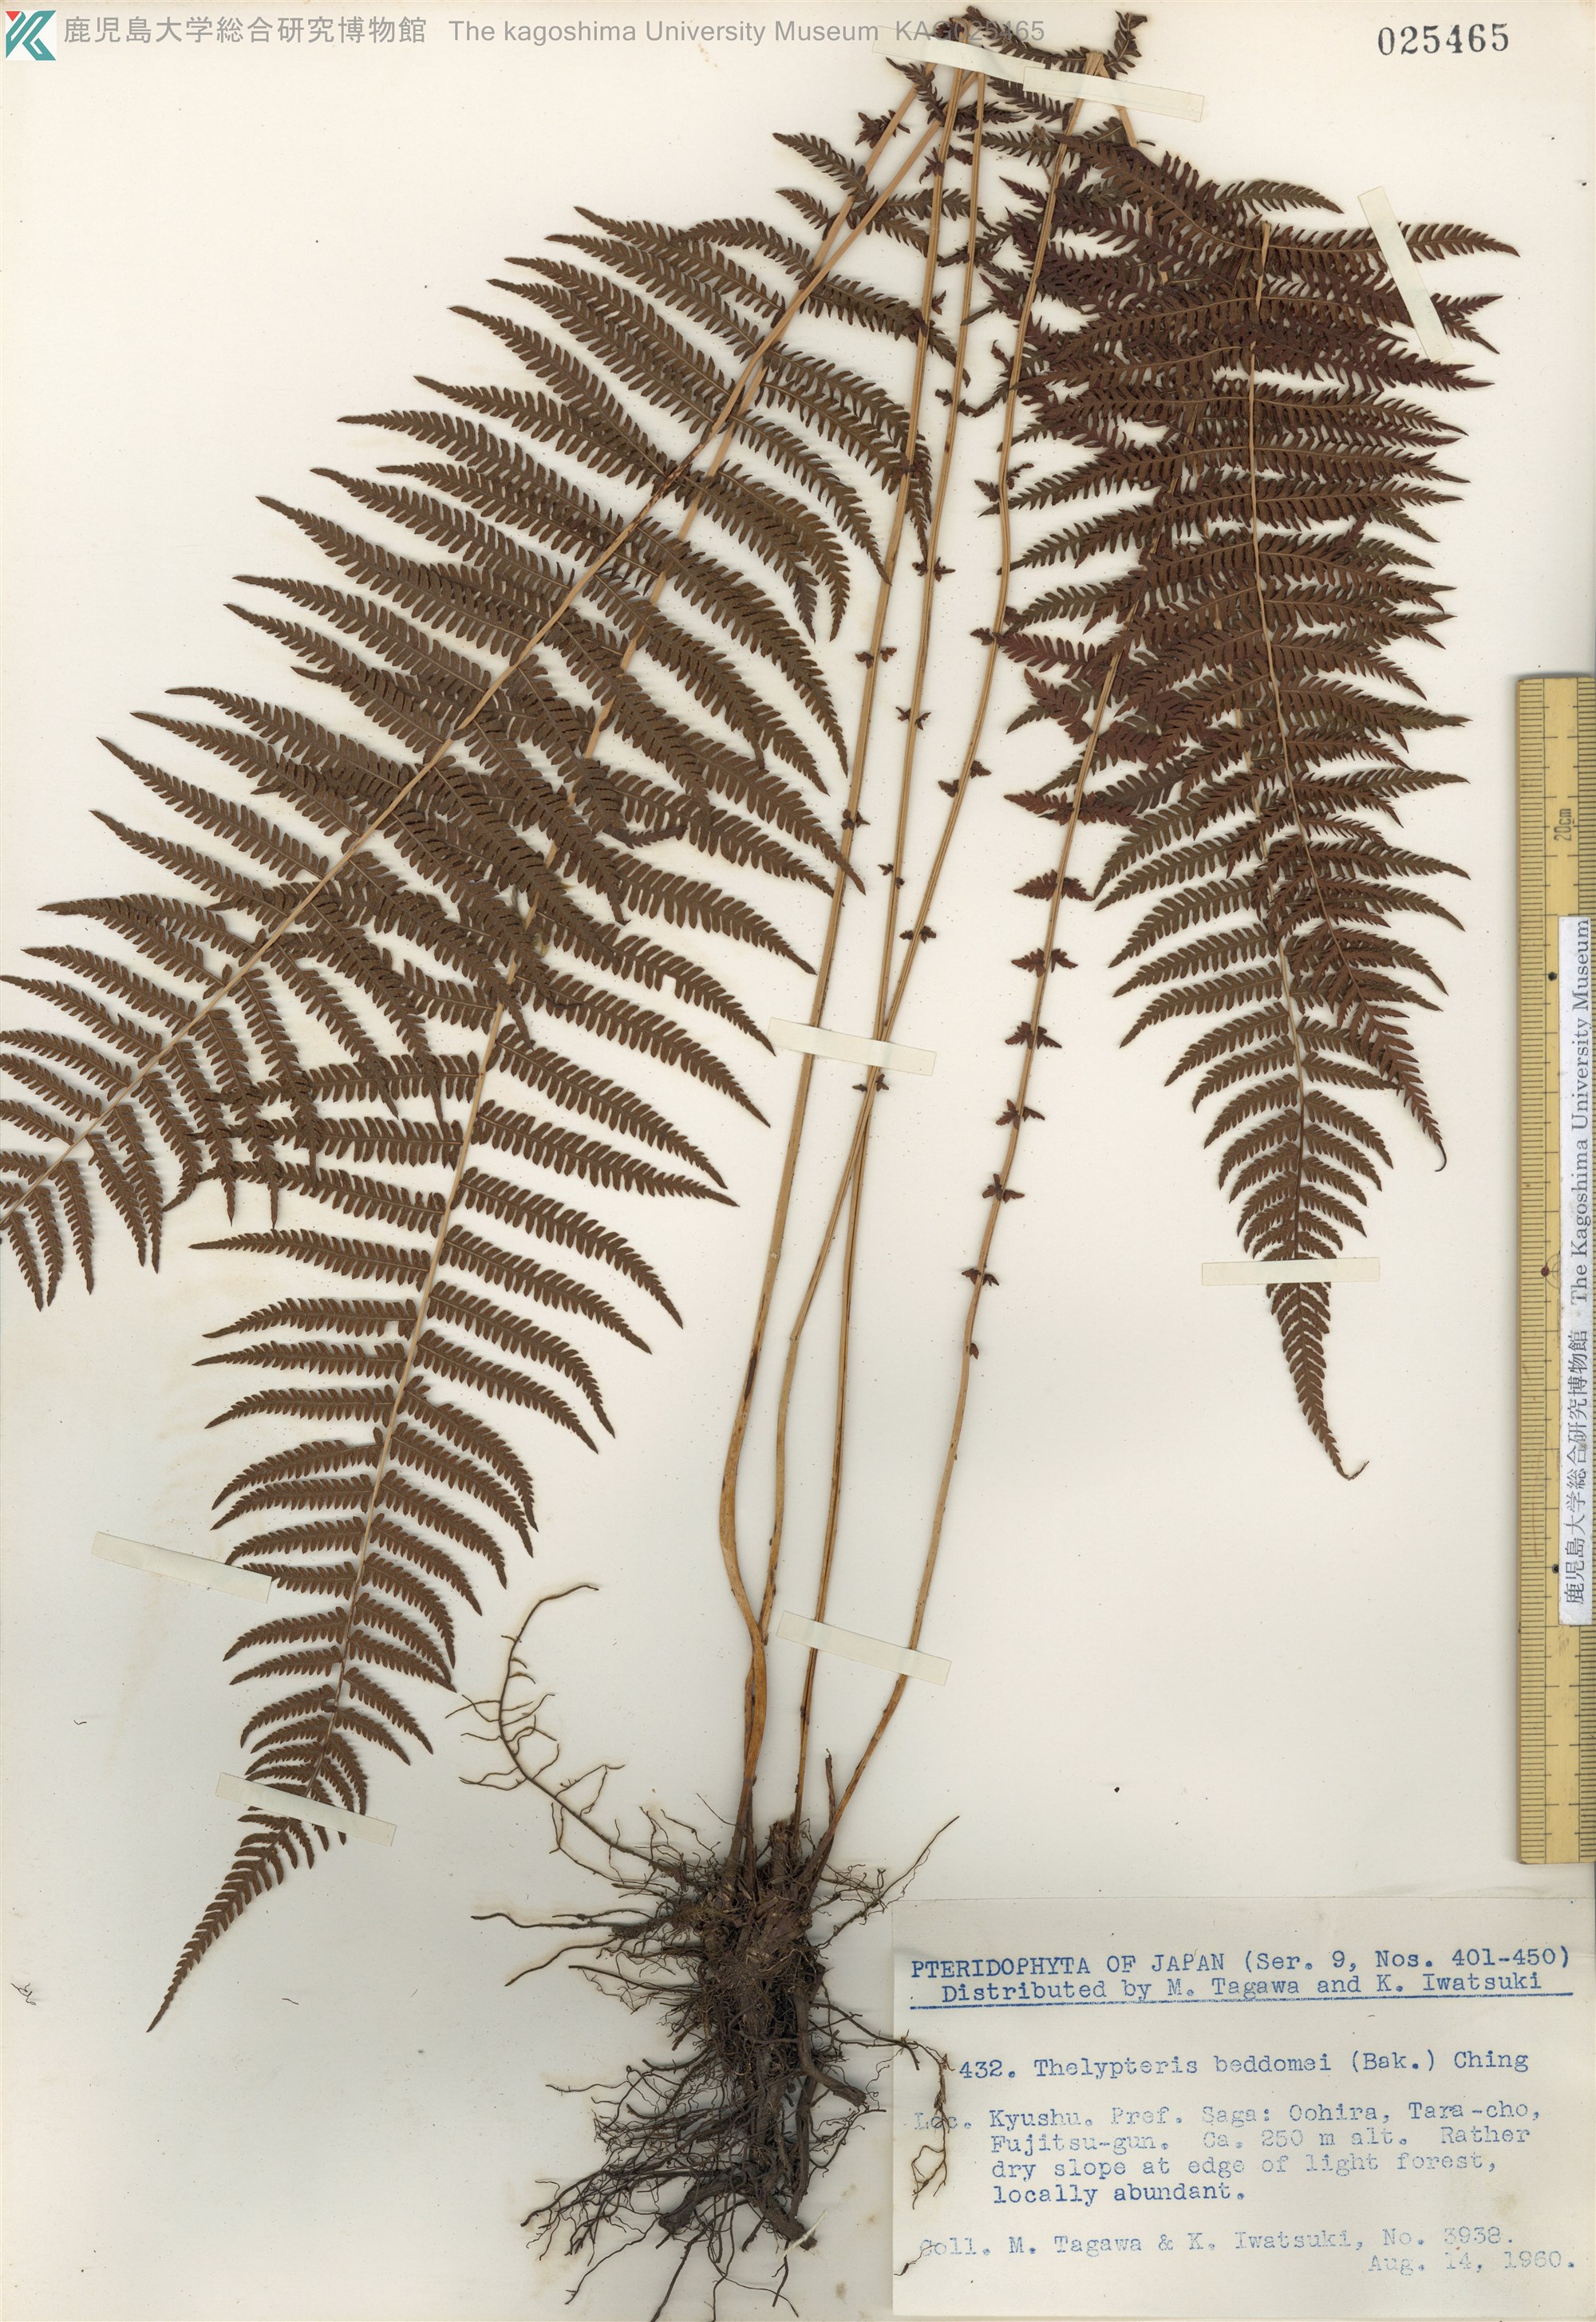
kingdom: Plantae
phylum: Tracheophyta
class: Polypodiopsida
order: Polypodiales
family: Thelypteridaceae
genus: Amauropelta
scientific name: Amauropelta beddomei
